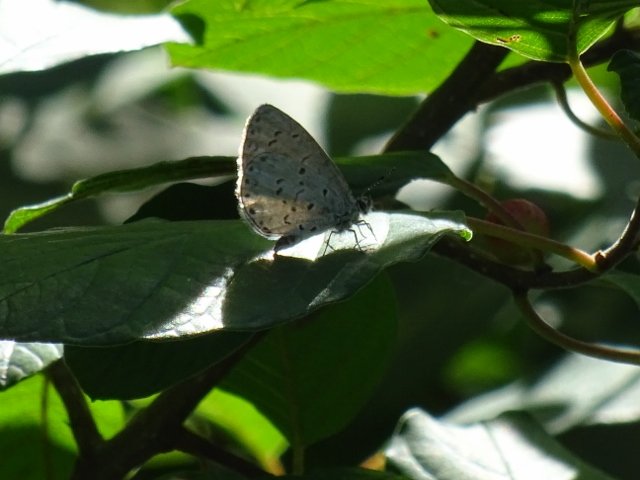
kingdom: Animalia
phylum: Arthropoda
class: Insecta
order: Lepidoptera
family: Lycaenidae
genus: Celastrina
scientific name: Celastrina
